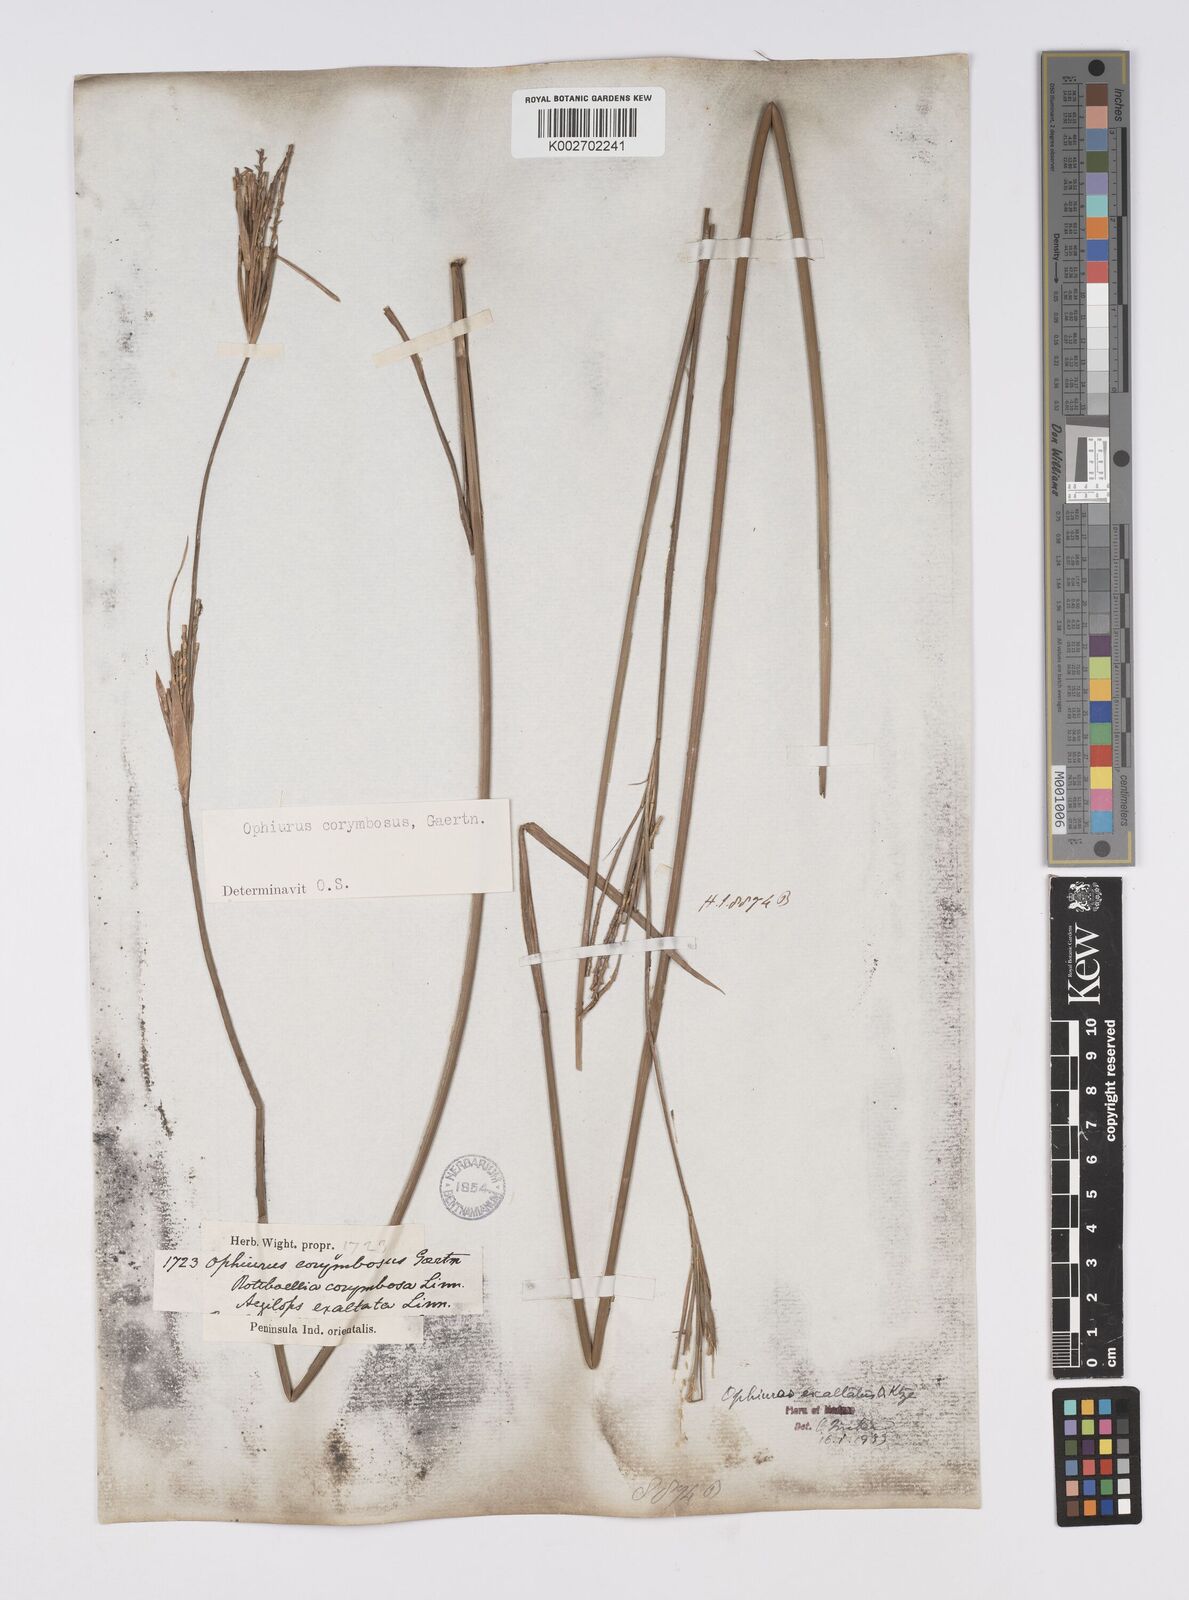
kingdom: Plantae
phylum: Tracheophyta
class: Liliopsida
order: Poales
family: Poaceae
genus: Ophiuros
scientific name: Ophiuros exaltatus
